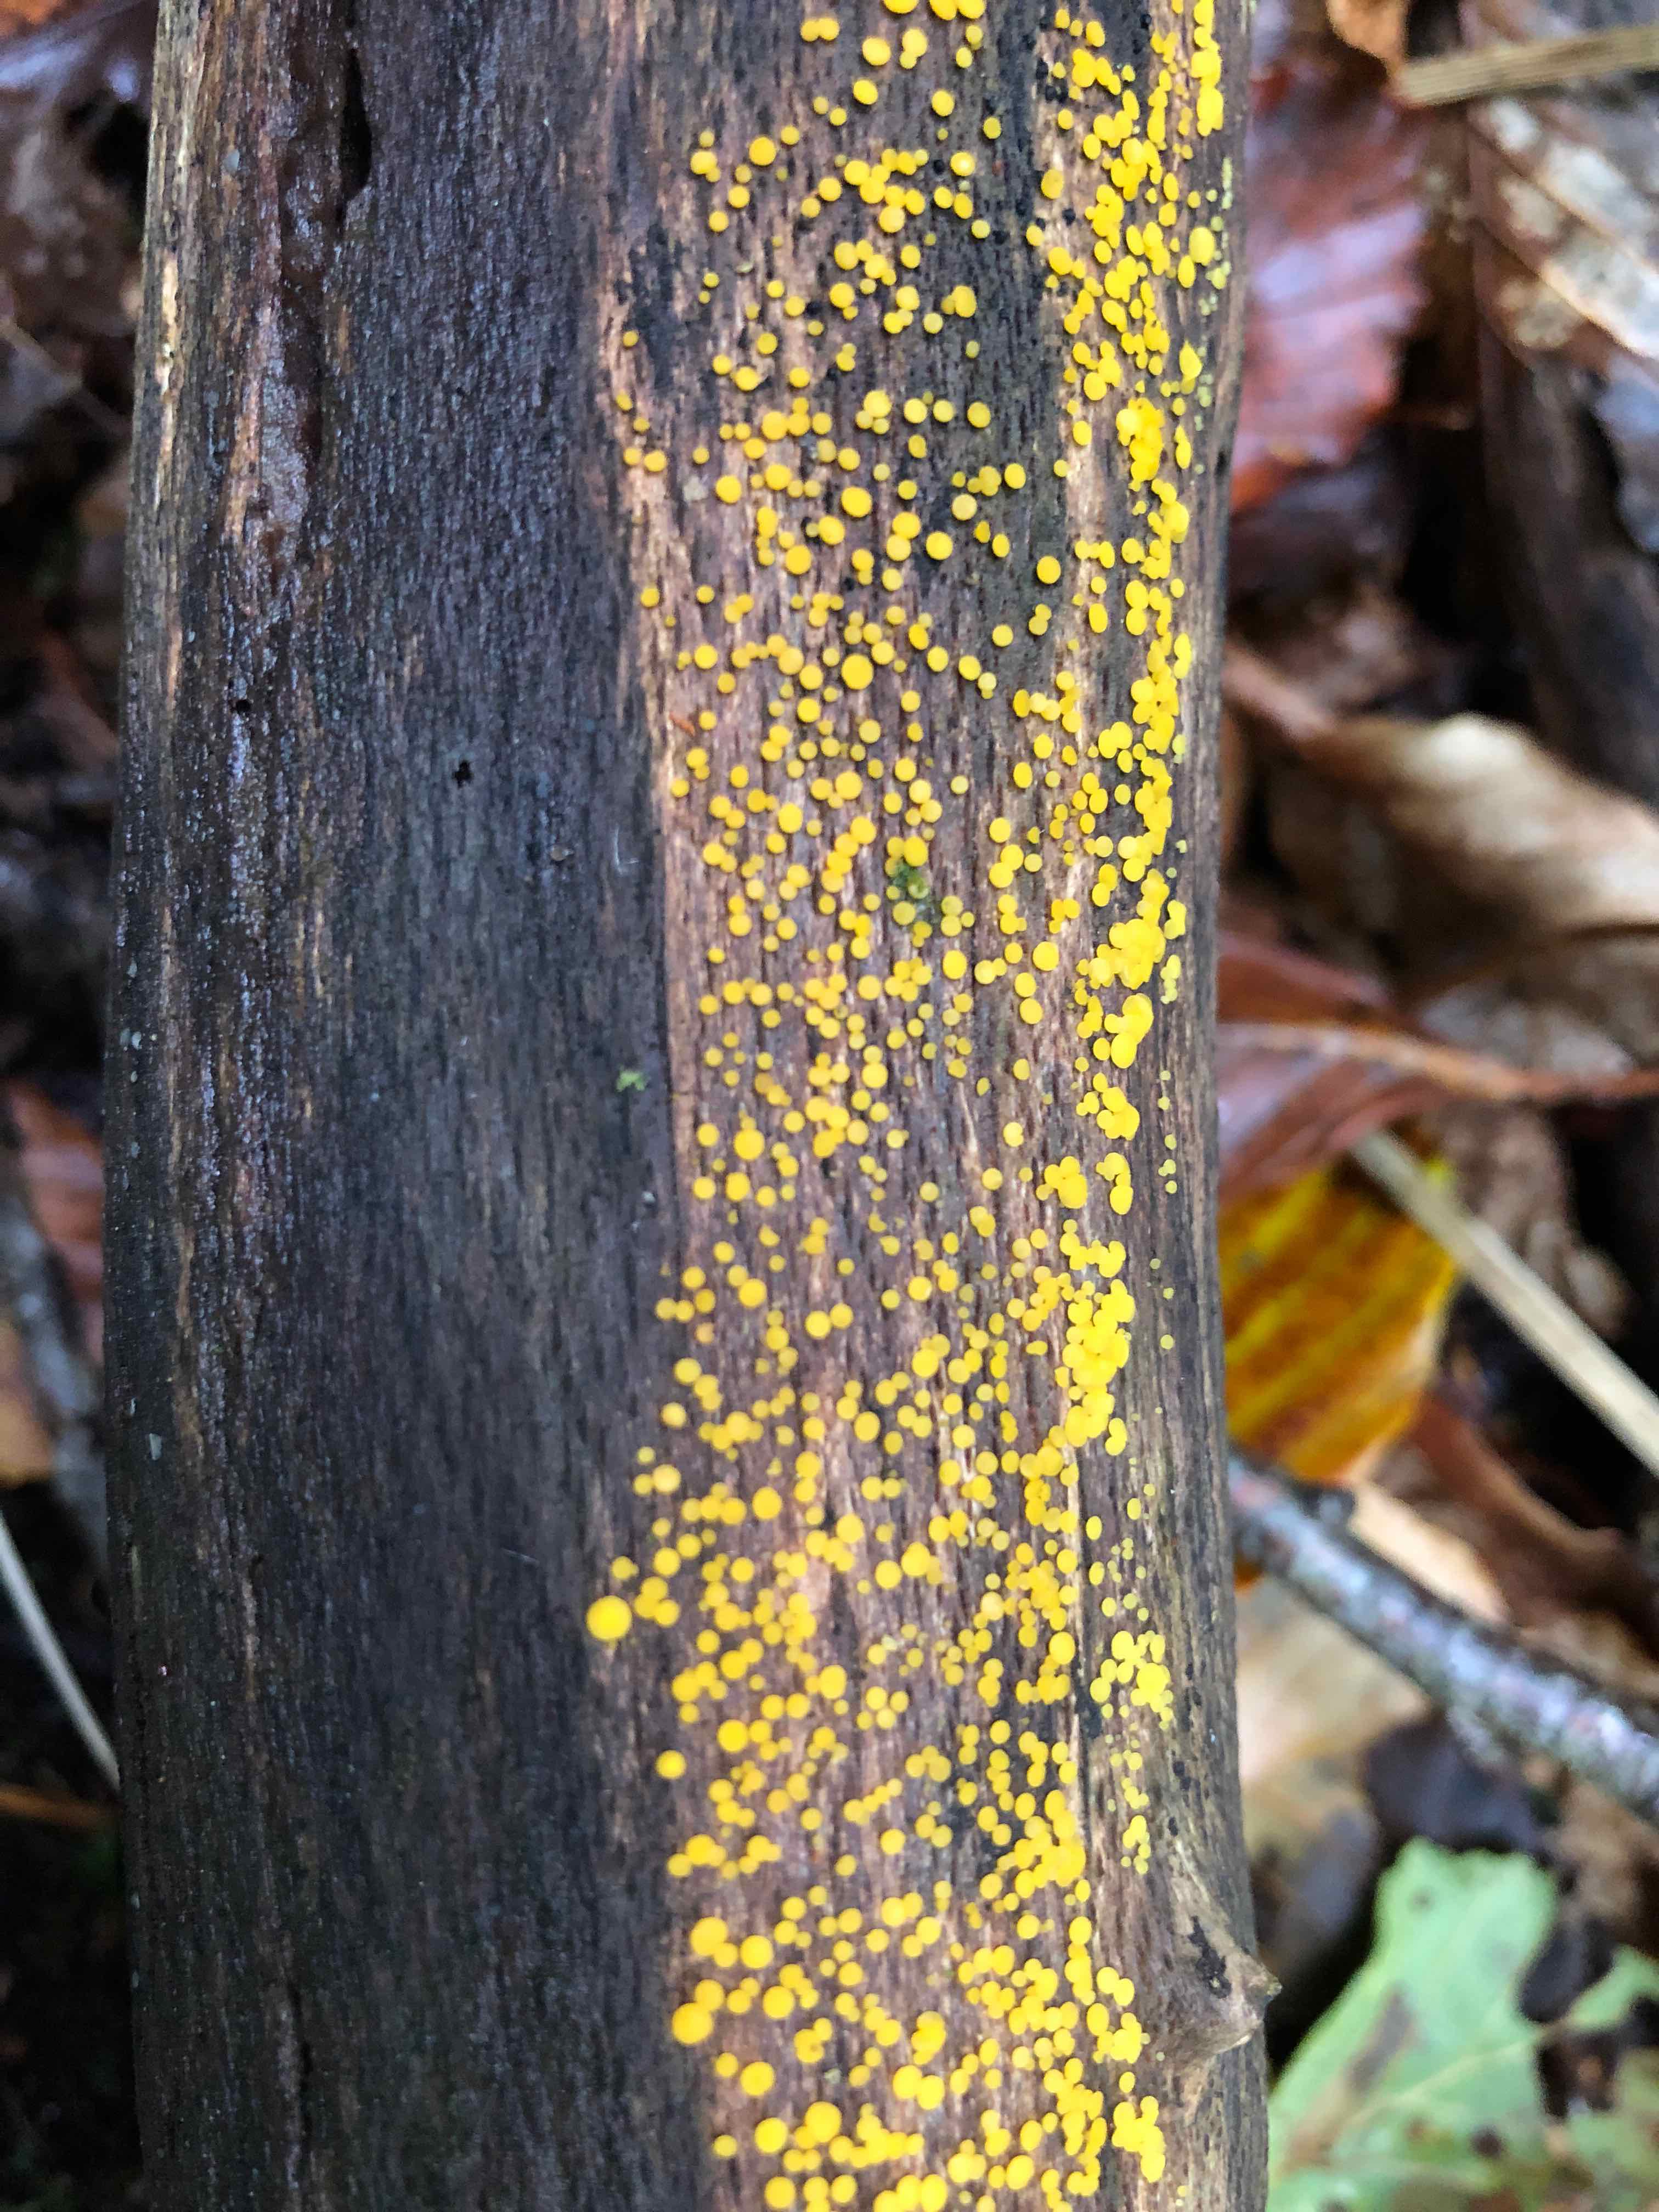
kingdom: Fungi
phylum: Ascomycota
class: Leotiomycetes
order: Helotiales
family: Pezizellaceae
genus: Calycina
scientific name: Calycina citrina
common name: almindelig gulskive
